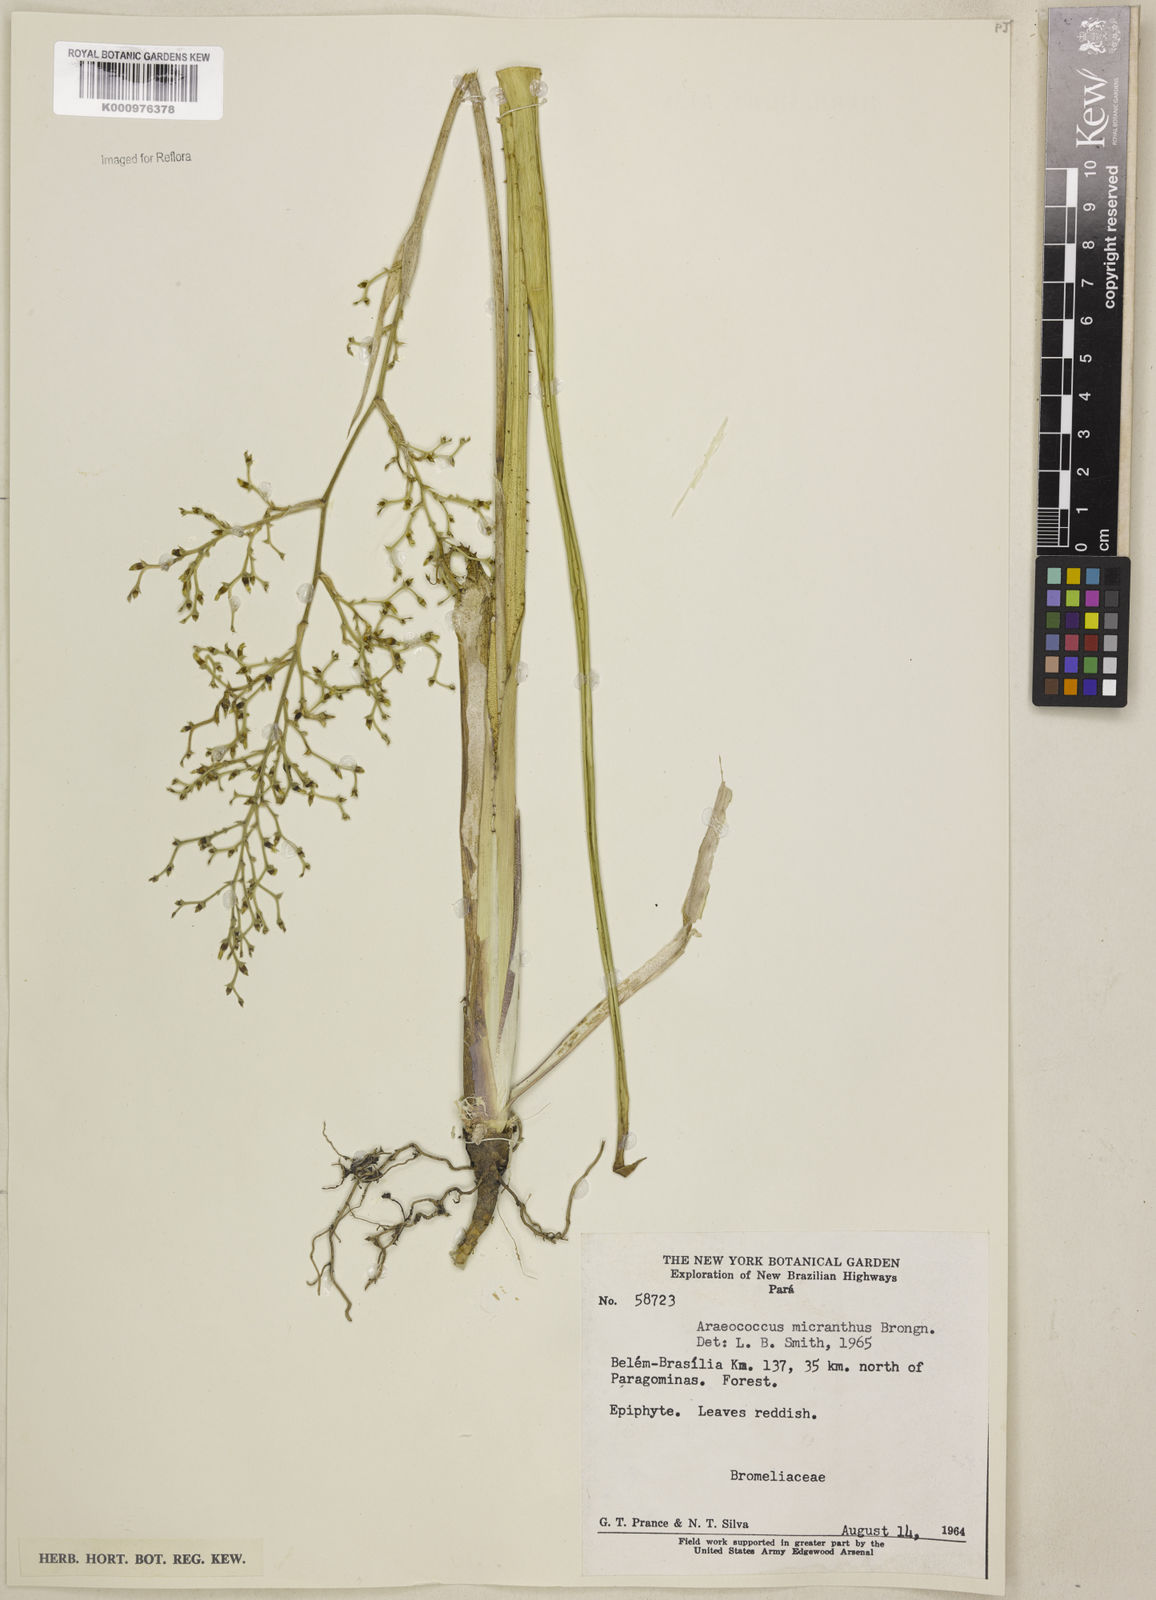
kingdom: Plantae
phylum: Tracheophyta
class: Liliopsida
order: Poales
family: Bromeliaceae
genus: Araeococcus
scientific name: Araeococcus micranthus
